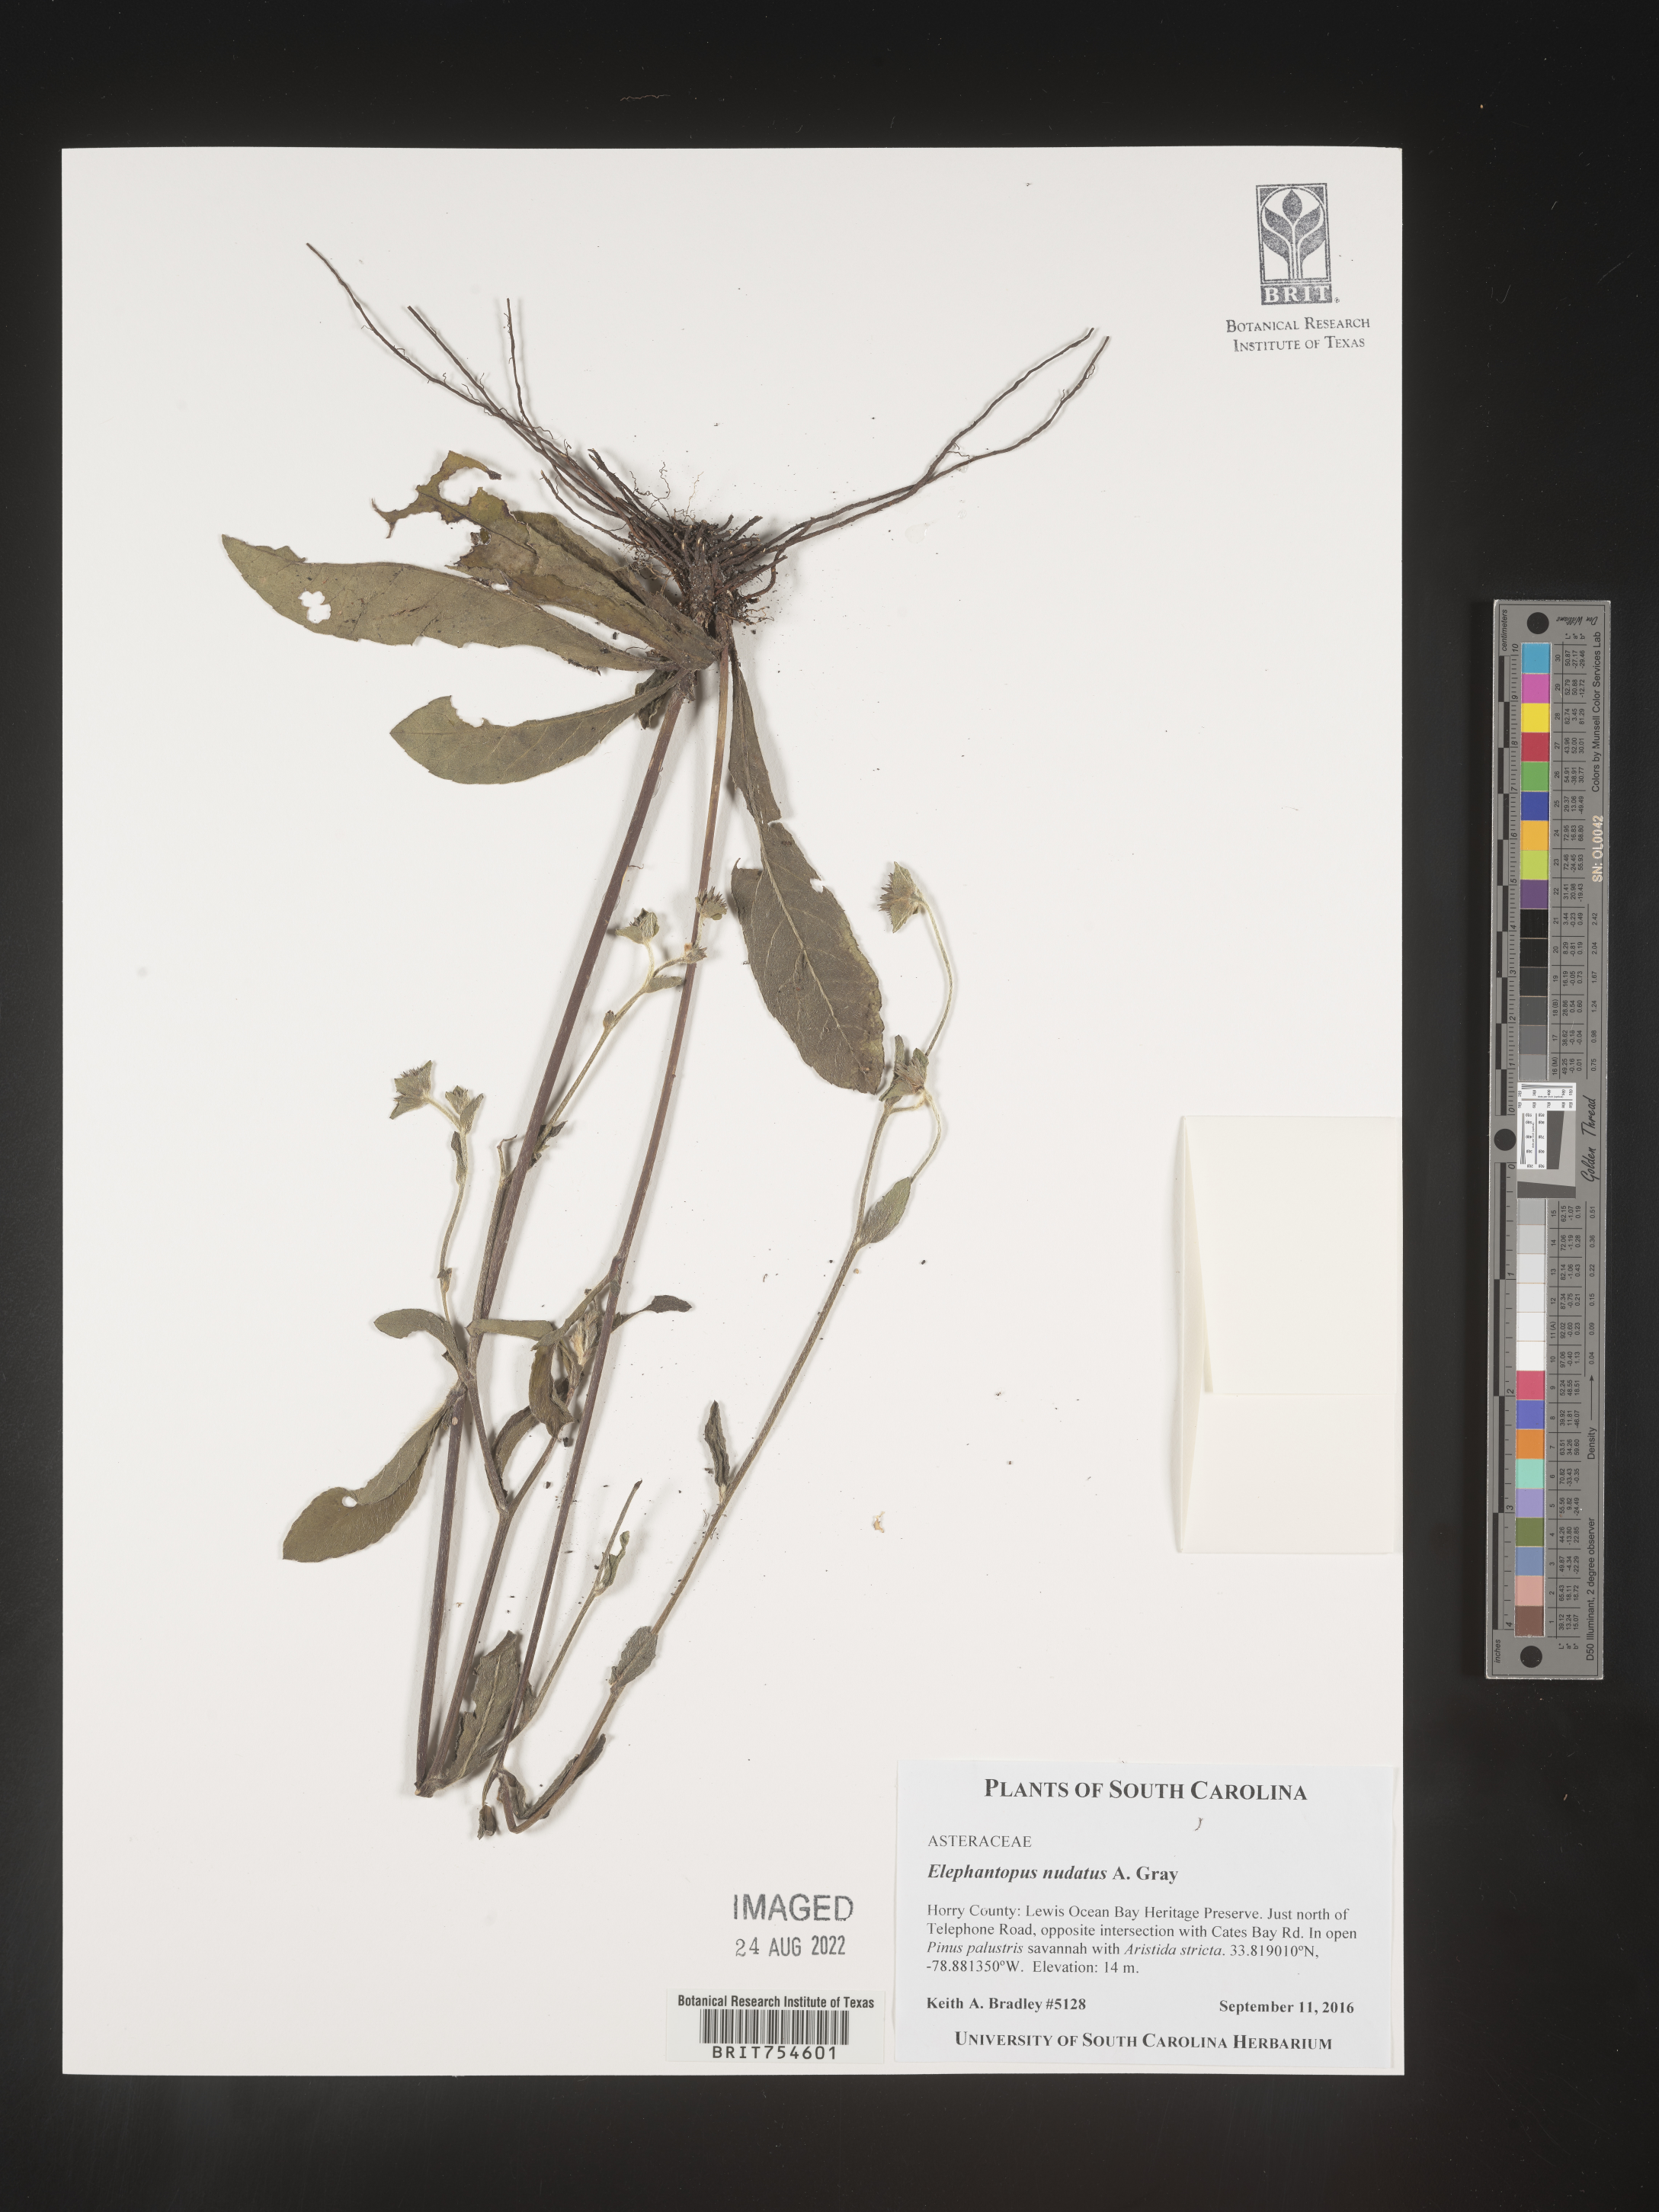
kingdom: Plantae
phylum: Tracheophyta
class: Magnoliopsida
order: Asterales
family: Asteraceae
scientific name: Asteraceae
